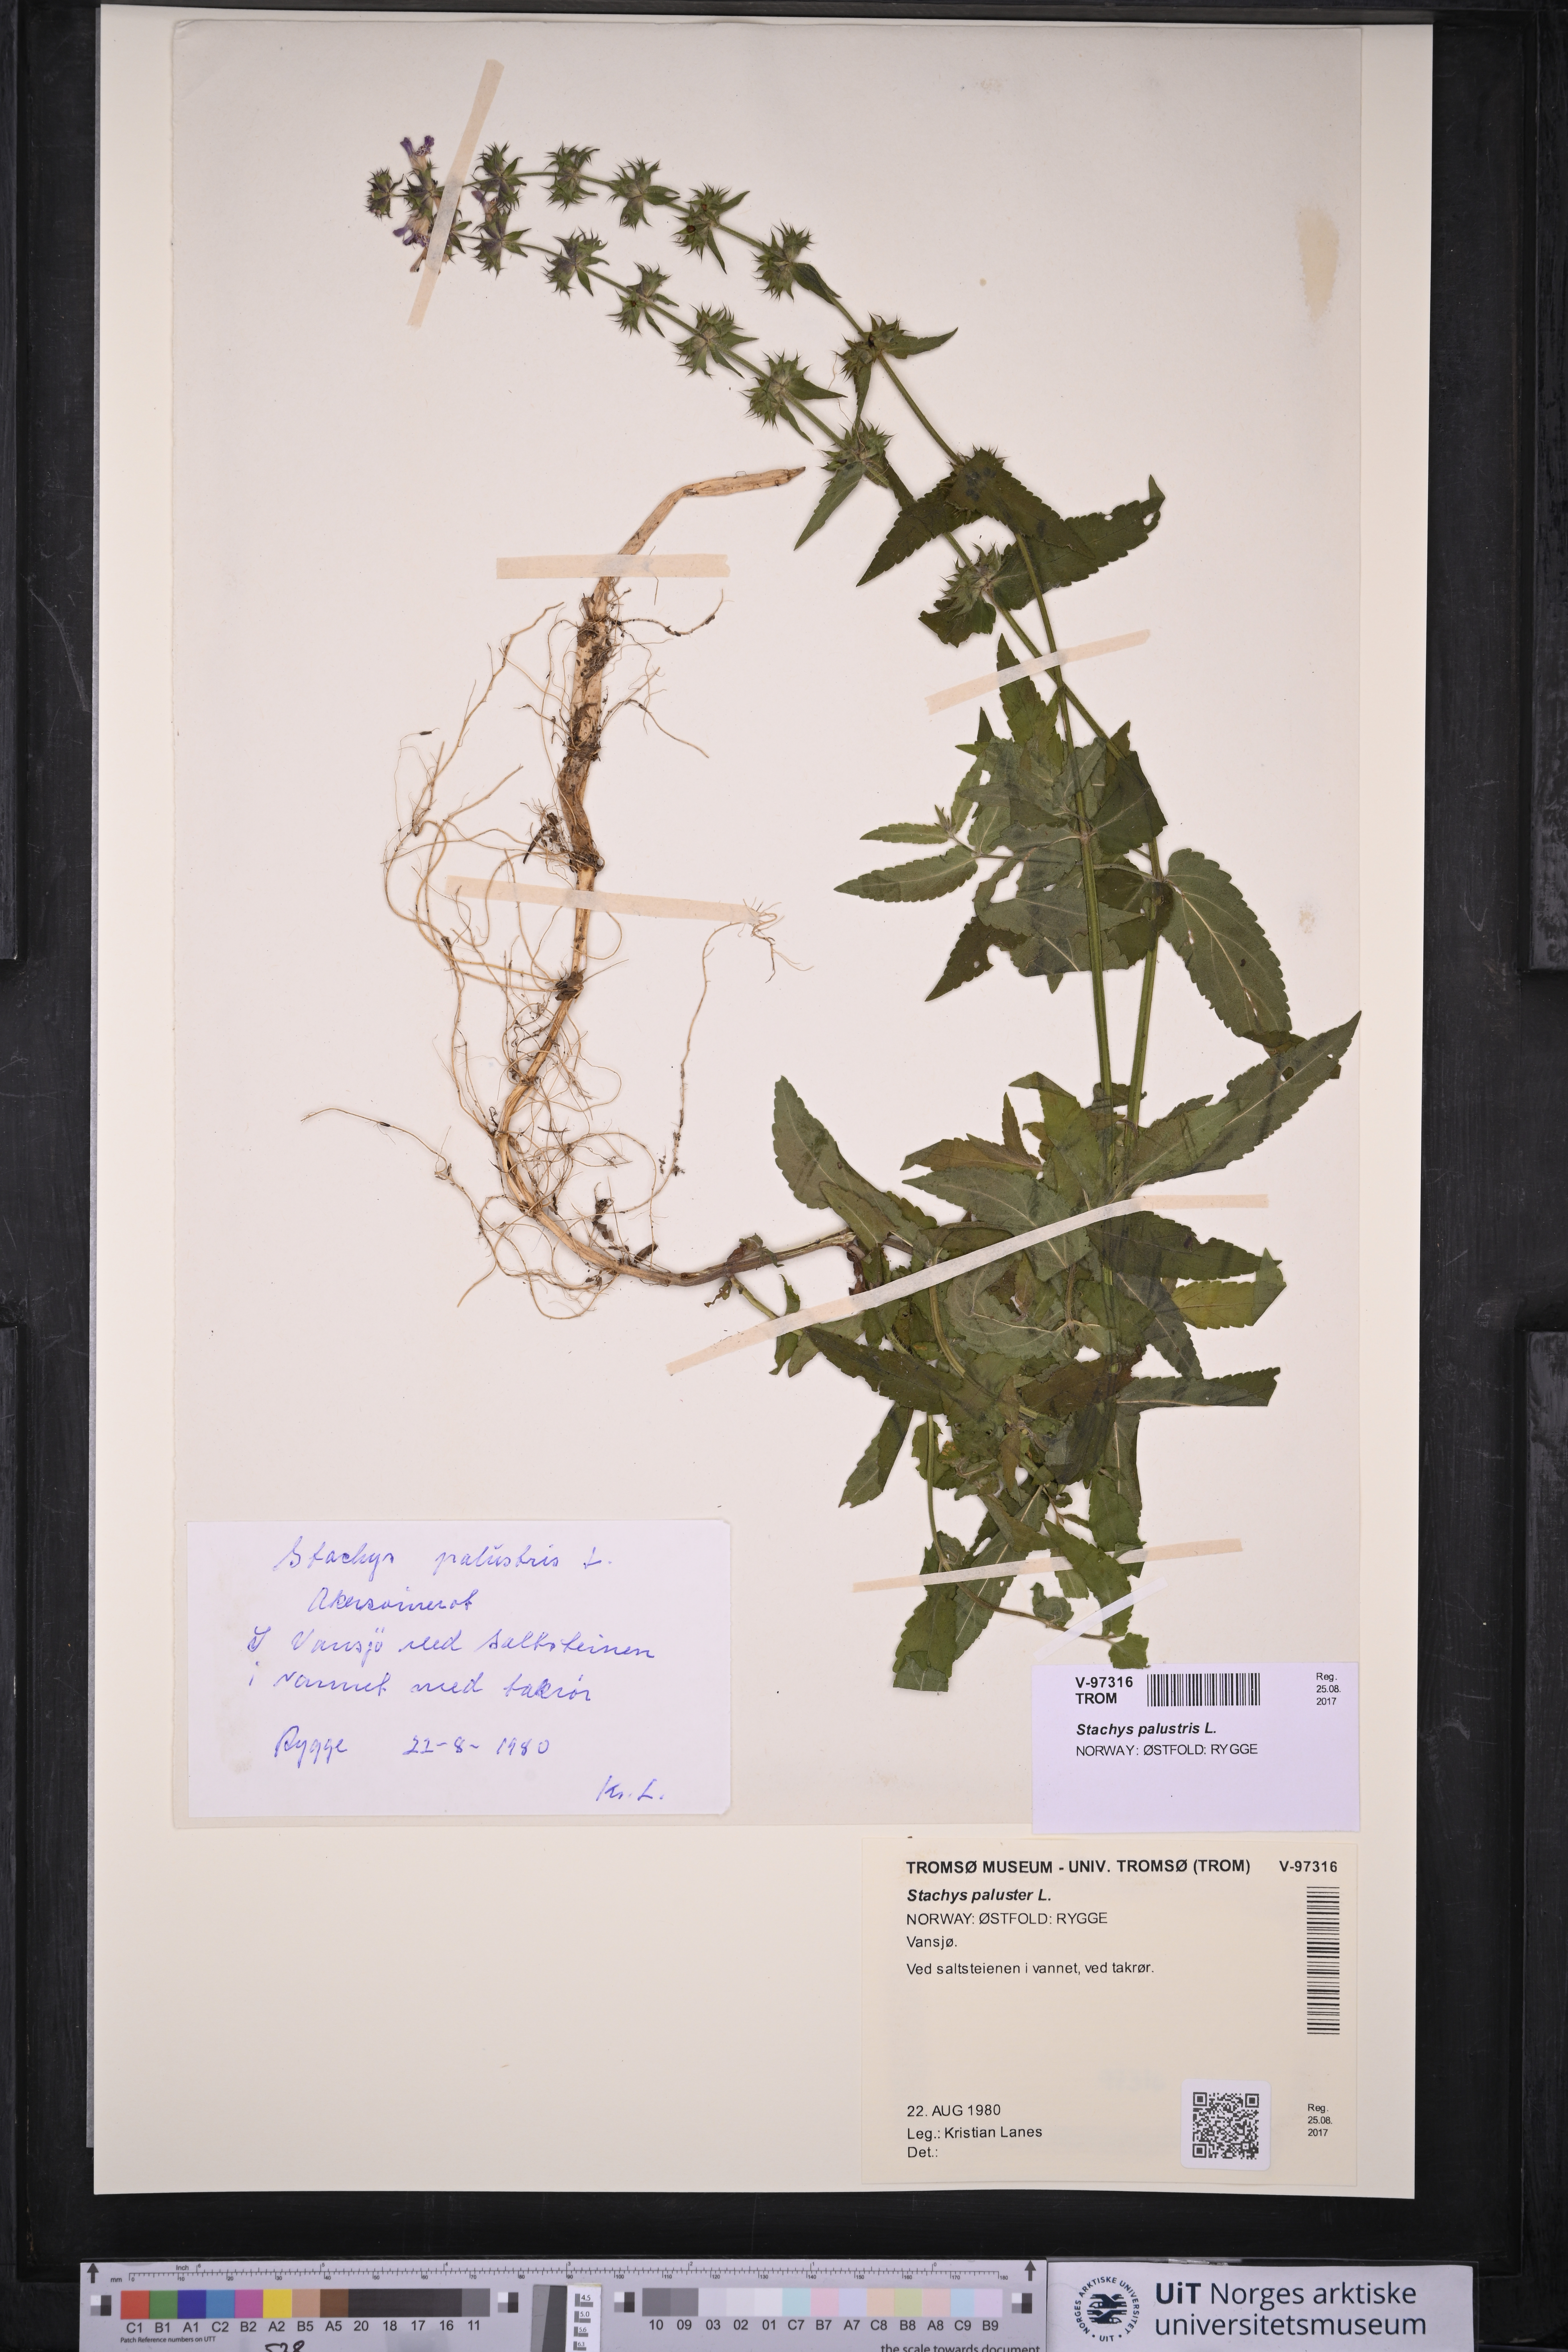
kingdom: Plantae
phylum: Tracheophyta
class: Magnoliopsida
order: Lamiales
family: Lamiaceae
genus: Stachys
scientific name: Stachys palustris
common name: Marsh woundwort
